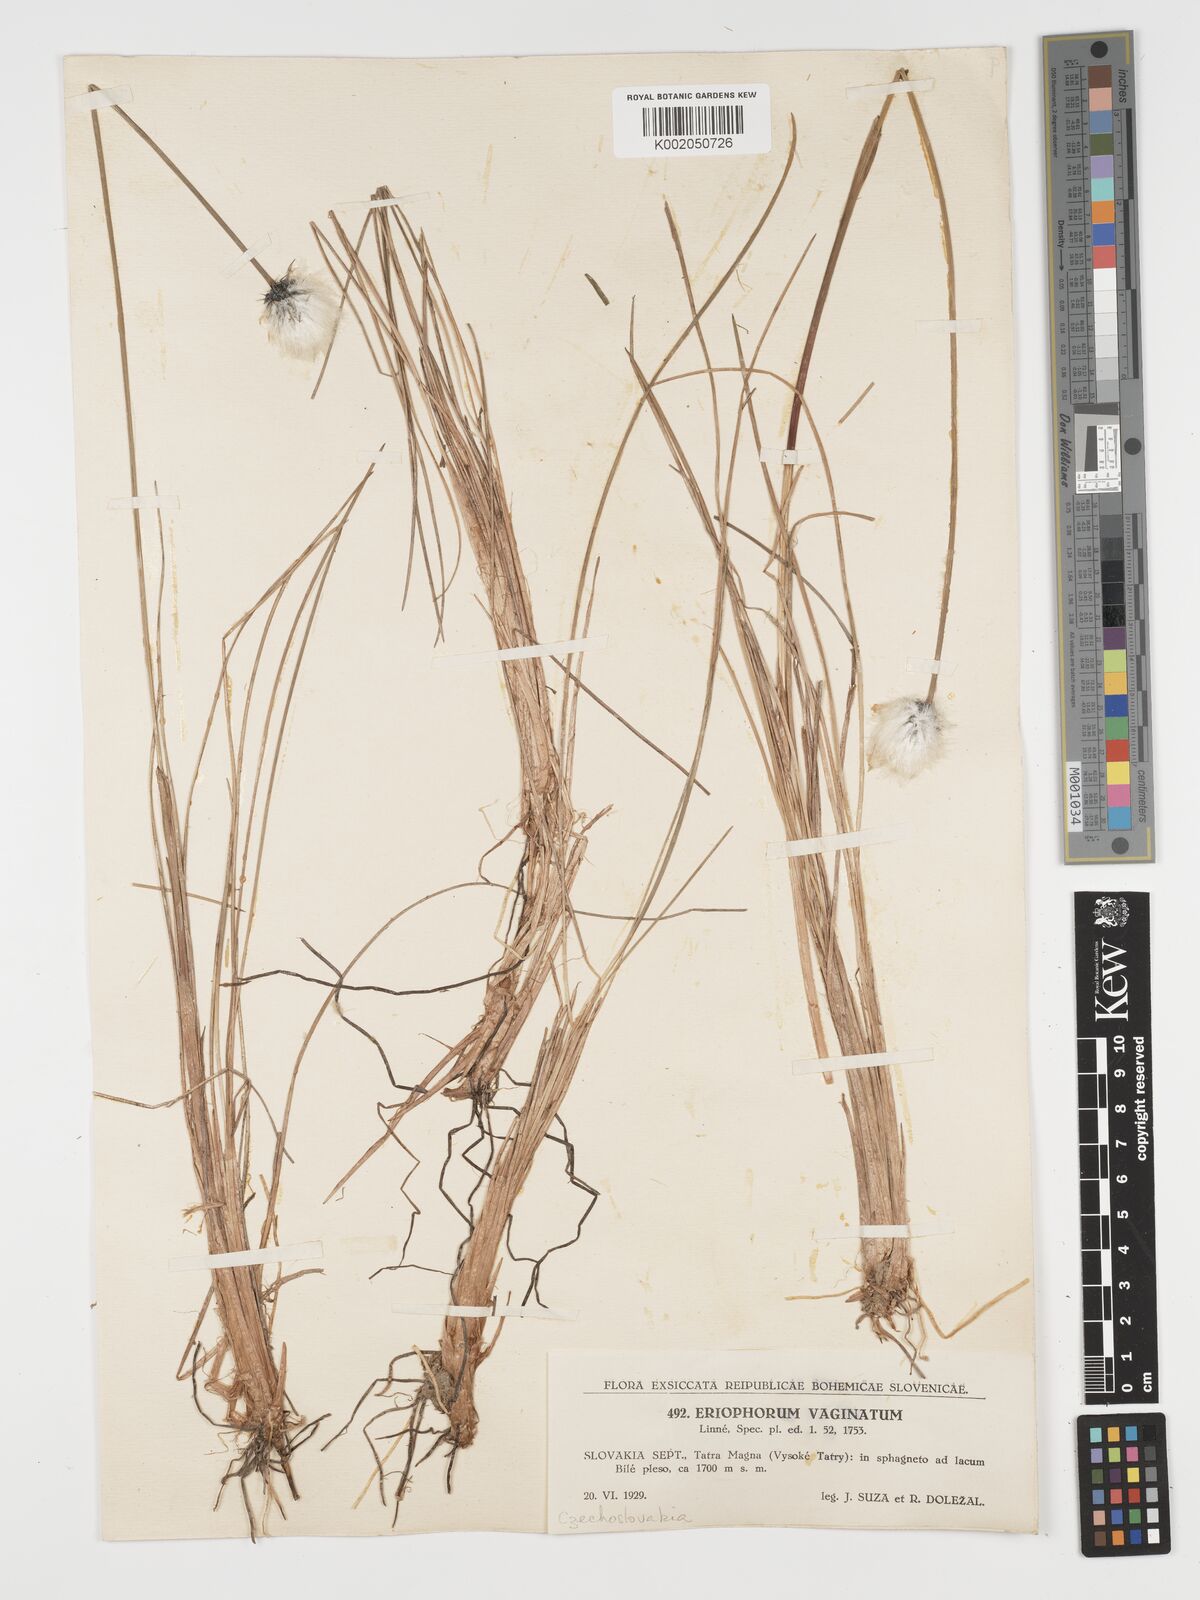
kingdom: Plantae
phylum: Tracheophyta
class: Liliopsida
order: Poales
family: Cyperaceae
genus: Eriophorum
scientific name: Eriophorum vaginatum
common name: Hare's-tail cottongrass
